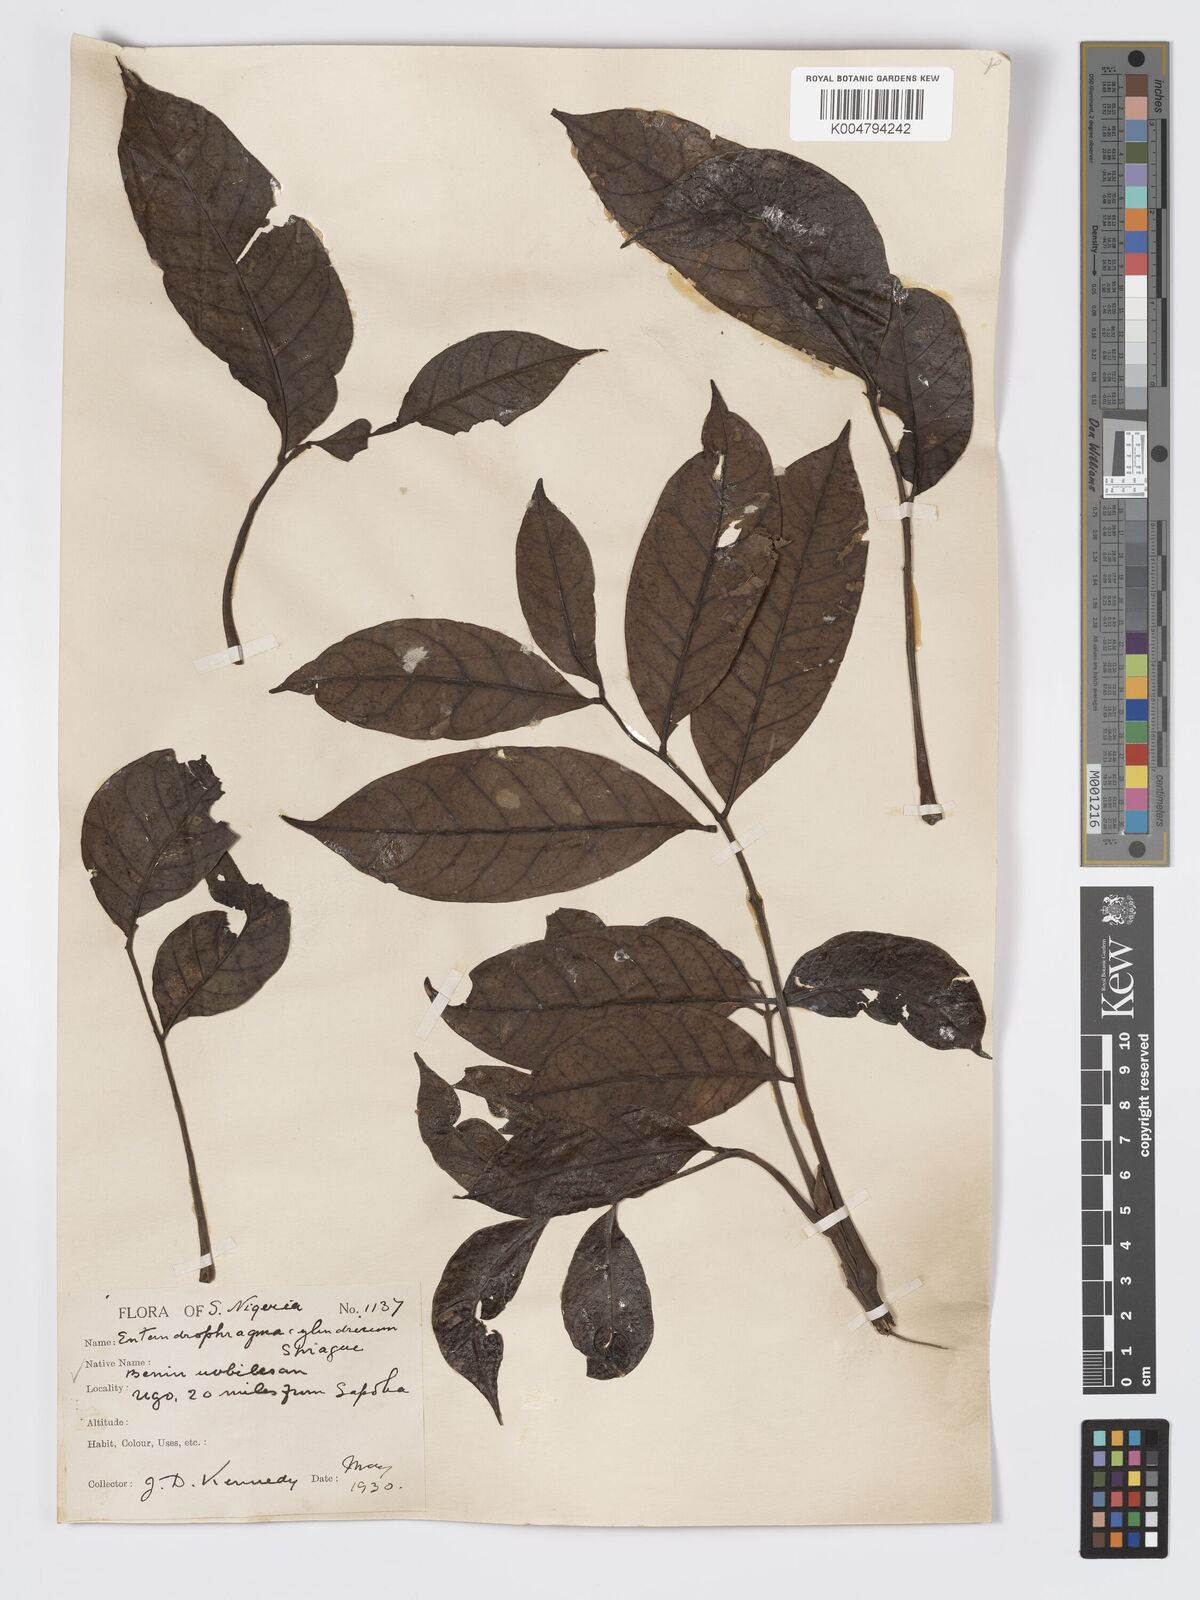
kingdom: Plantae
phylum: Tracheophyta
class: Magnoliopsida
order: Sapindales
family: Meliaceae
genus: Entandrophragma
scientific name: Entandrophragma cylindricum
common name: Sapele
